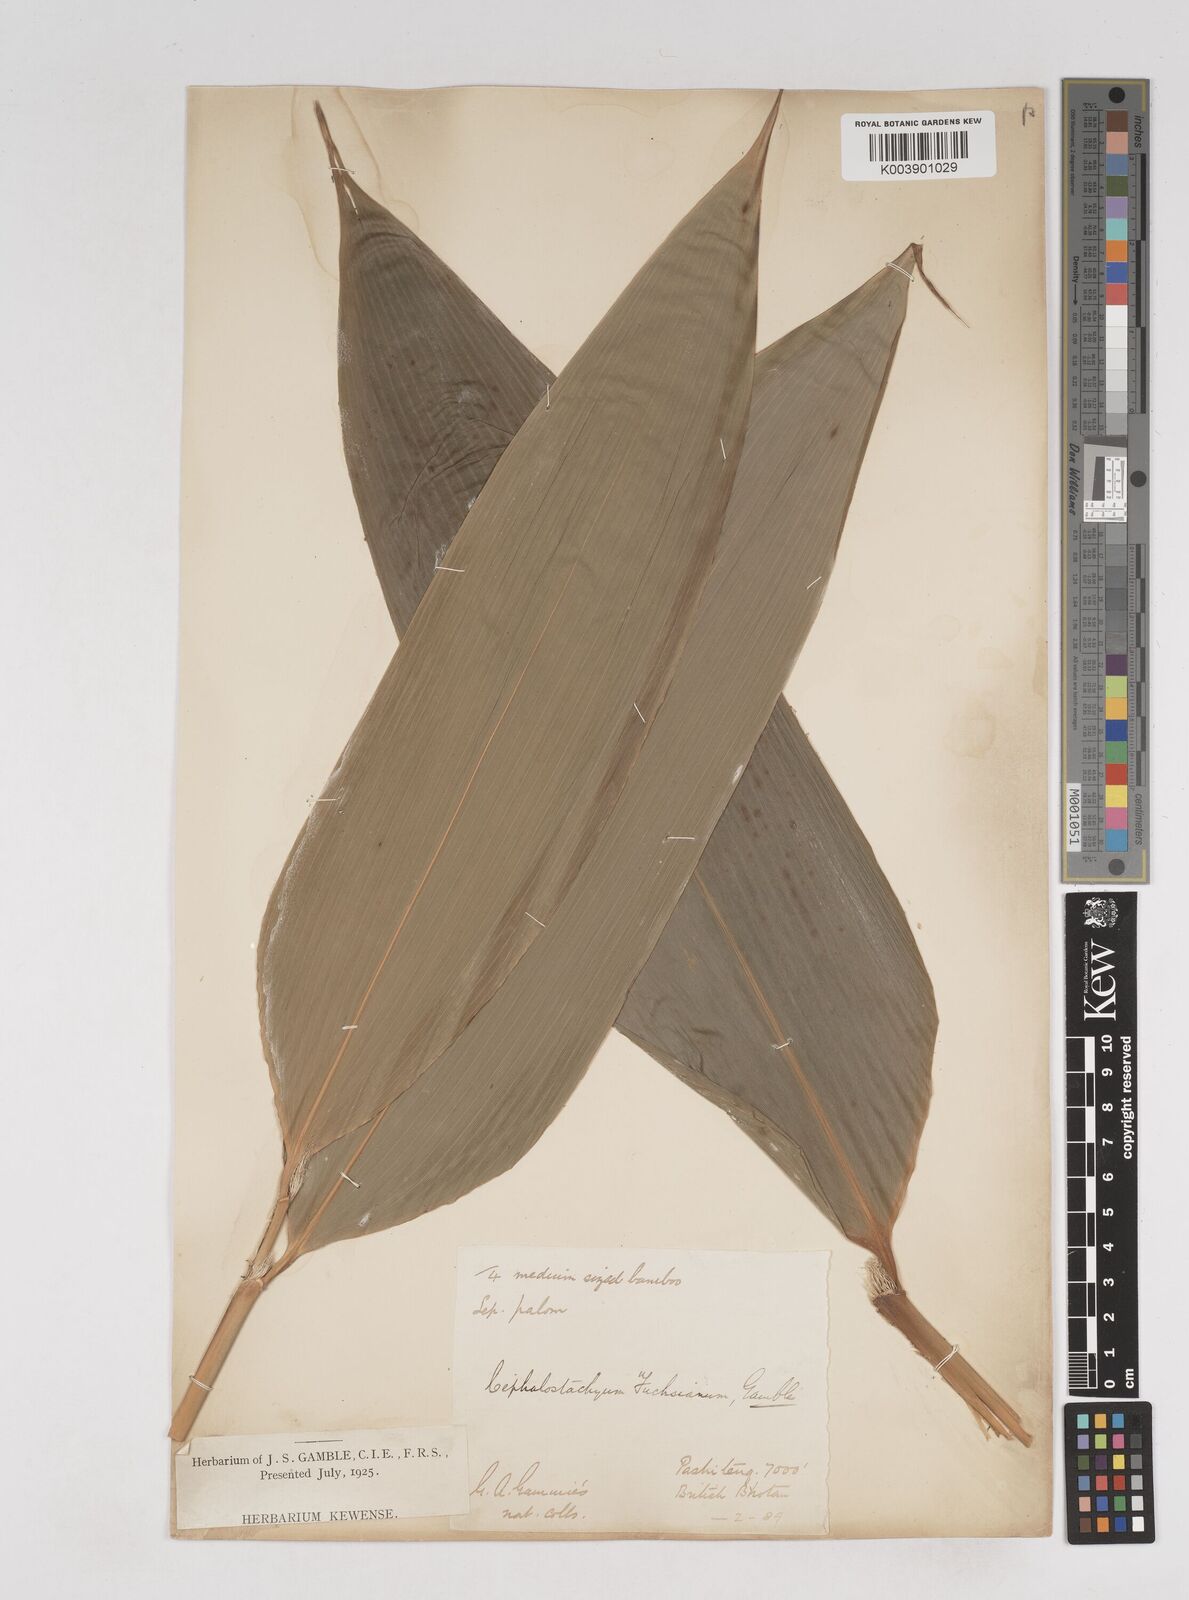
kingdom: Plantae
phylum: Tracheophyta
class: Liliopsida
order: Poales
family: Poaceae
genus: Cephalostachyum
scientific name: Cephalostachyum latifolium
